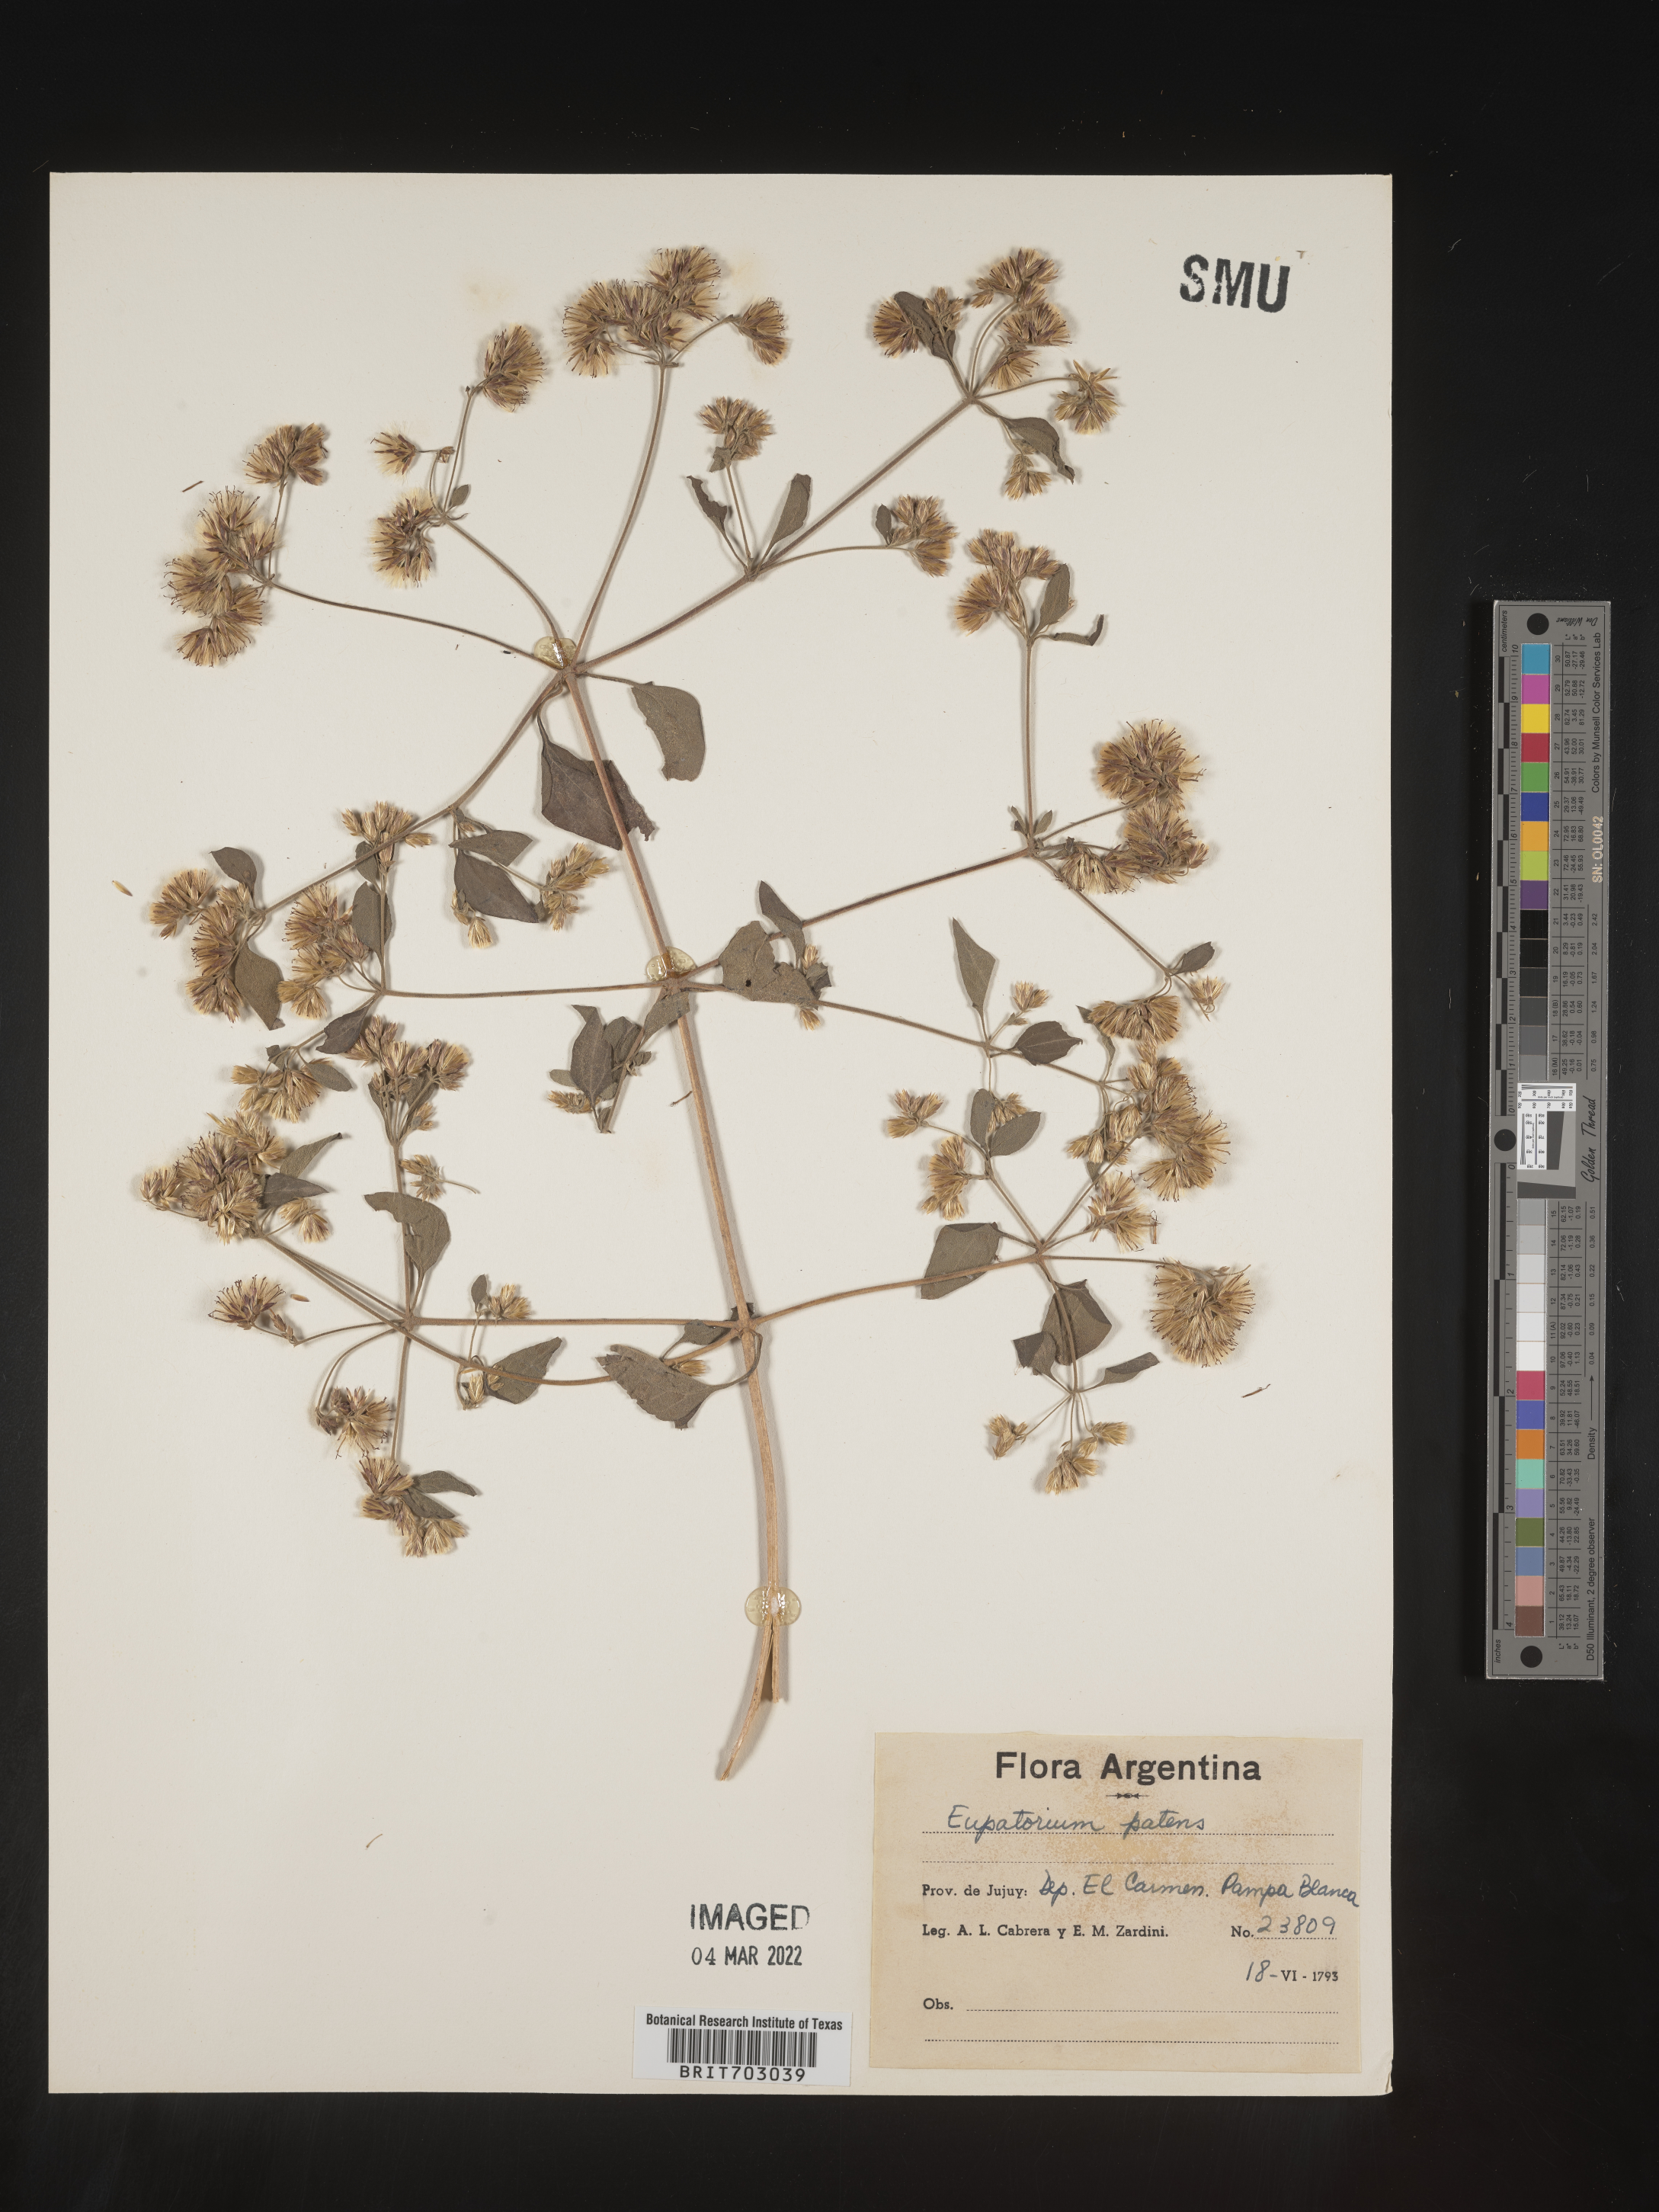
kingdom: Plantae
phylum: Tracheophyta
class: Magnoliopsida
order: Asterales
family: Asteraceae
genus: Eupatorium
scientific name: Eupatorium
